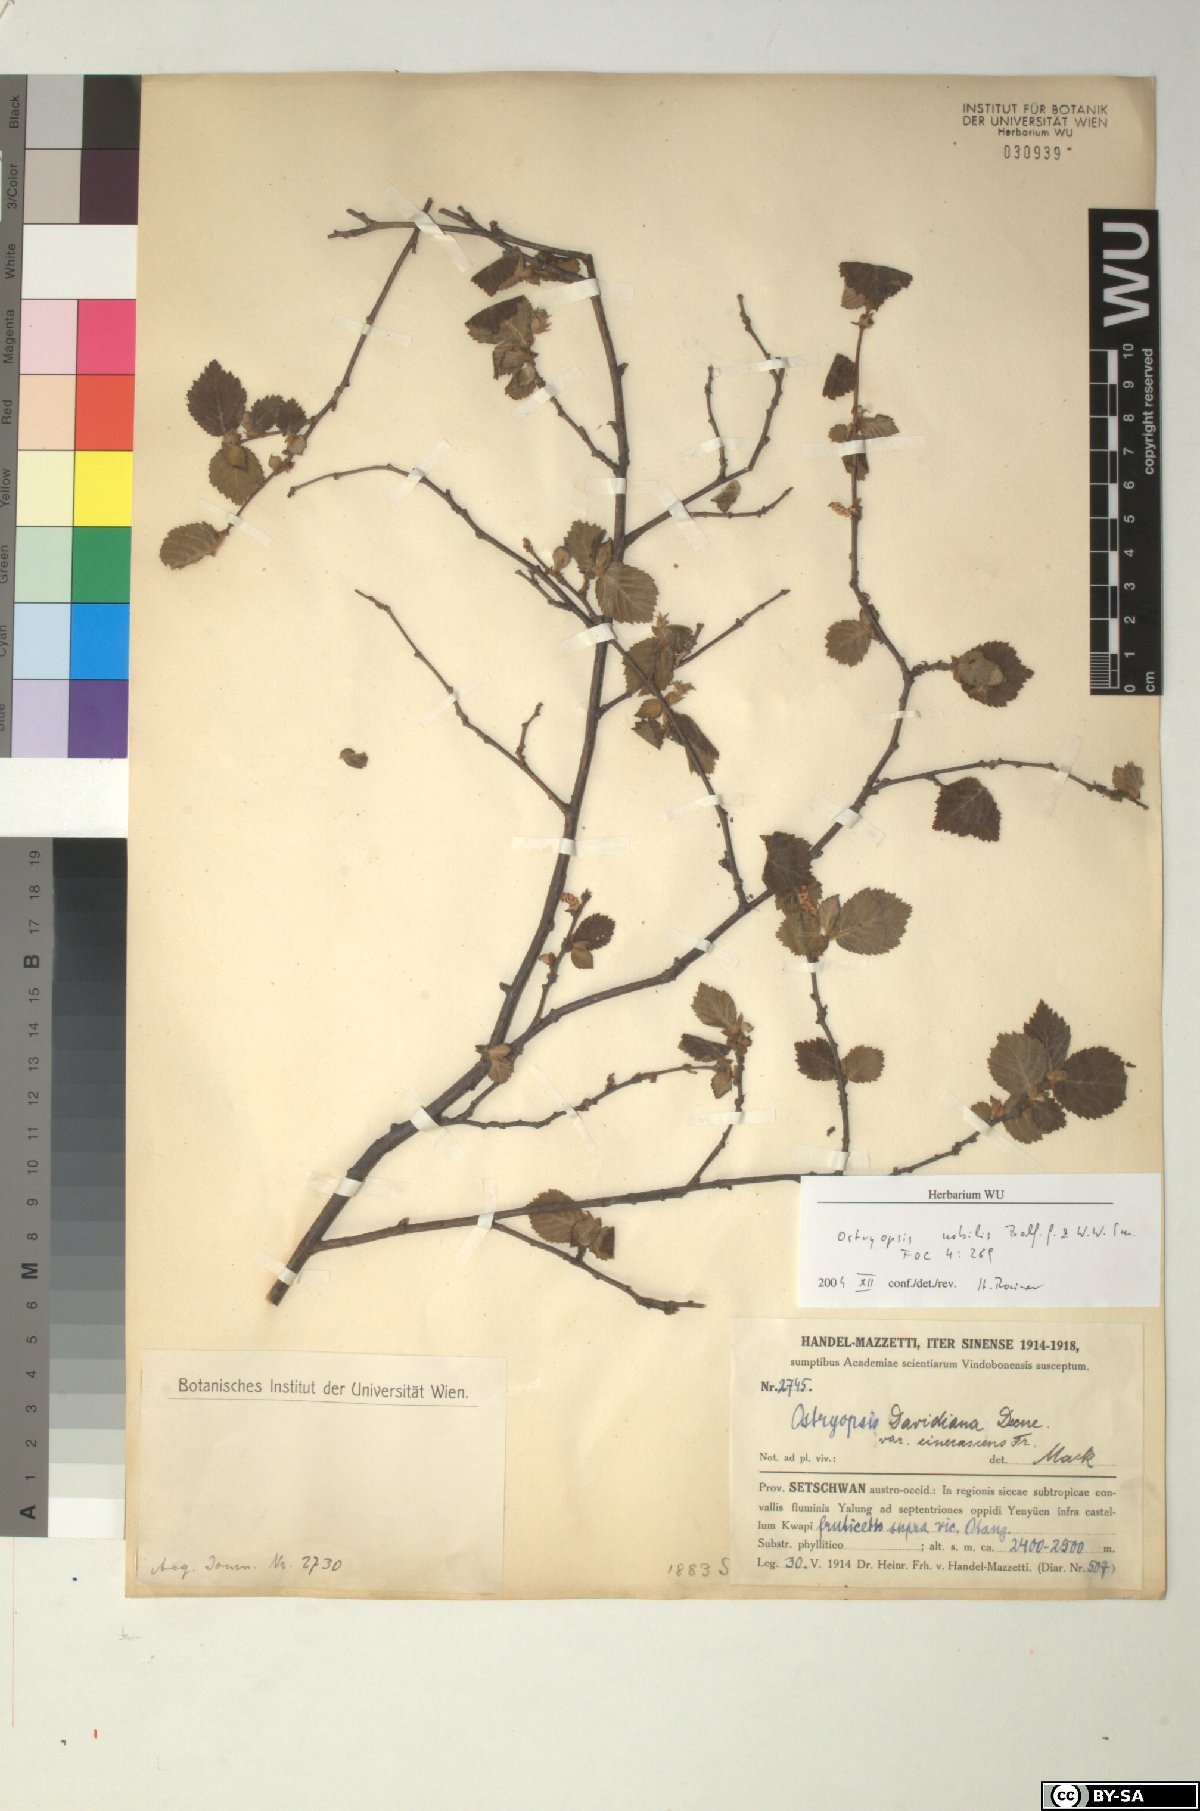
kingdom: Plantae
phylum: Tracheophyta
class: Magnoliopsida
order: Fagales
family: Betulaceae
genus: Ostryopsis
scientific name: Ostryopsis nobilis
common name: Yunnan tiger hazel
